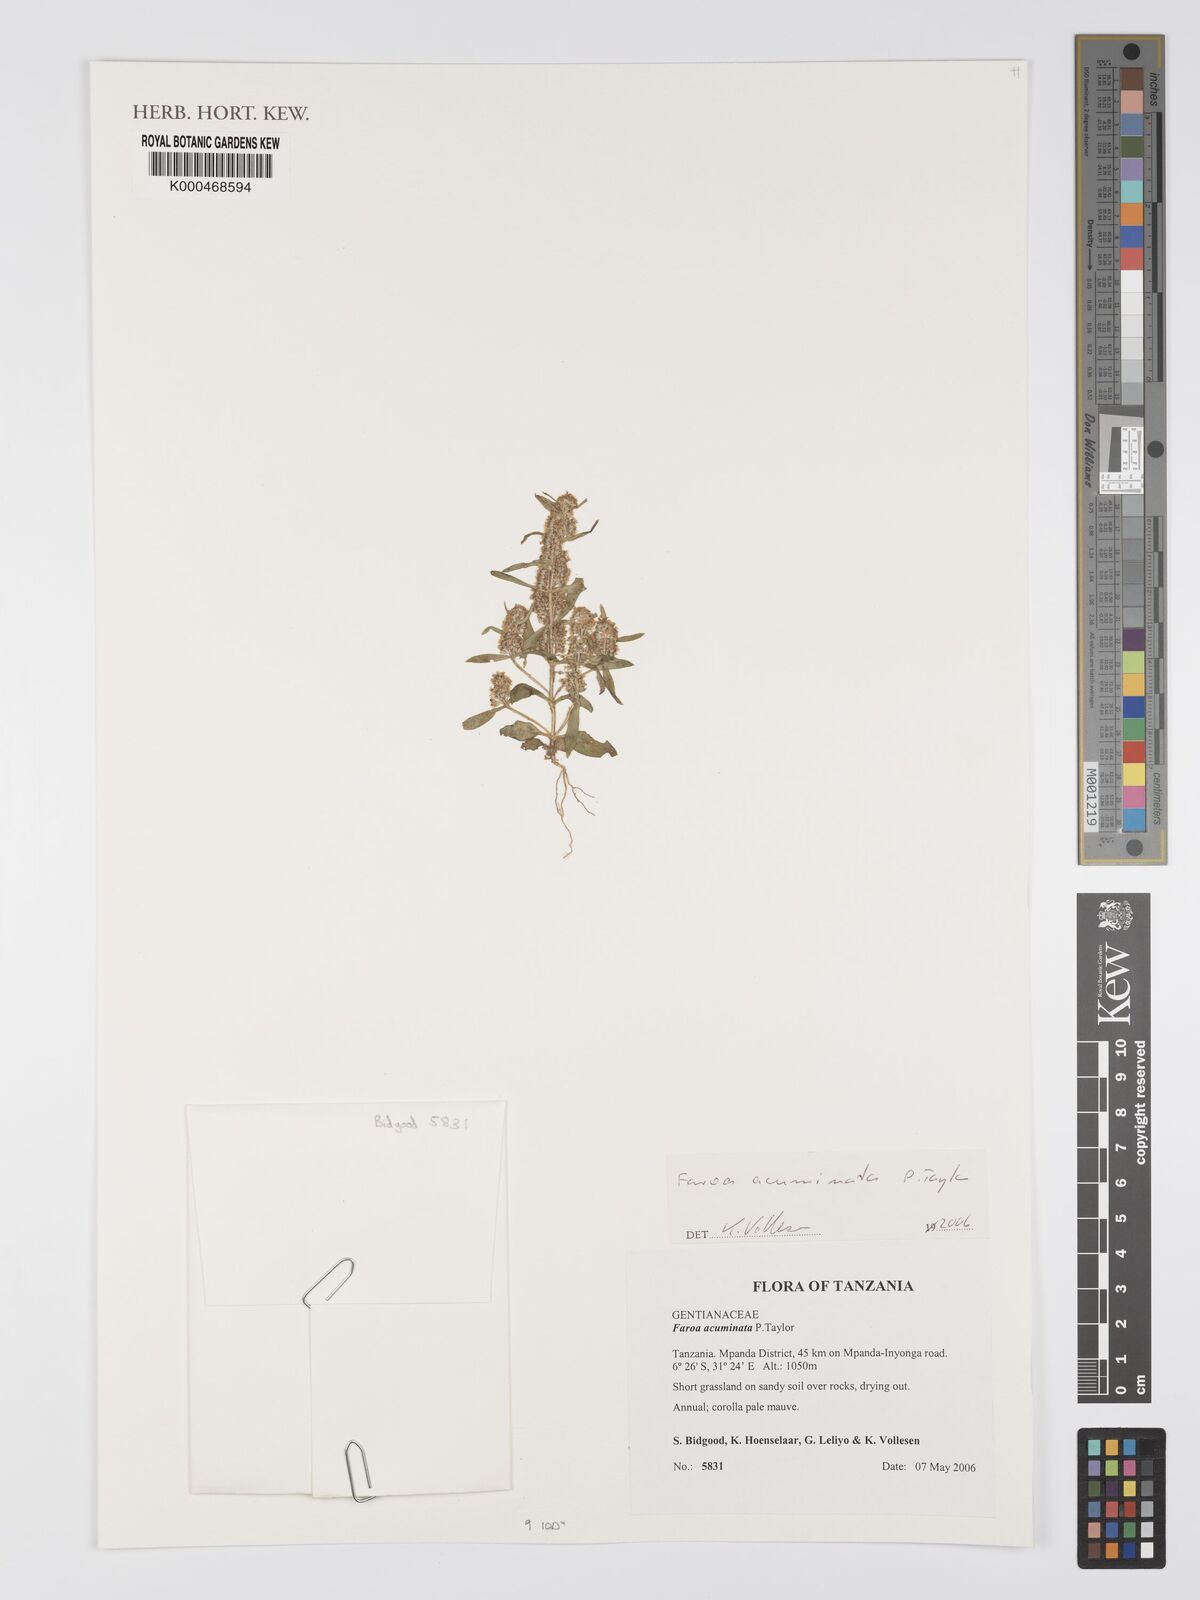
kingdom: Plantae
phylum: Tracheophyta
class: Magnoliopsida
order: Gentianales
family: Gentianaceae
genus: Faroa
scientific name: Faroa acuminata
